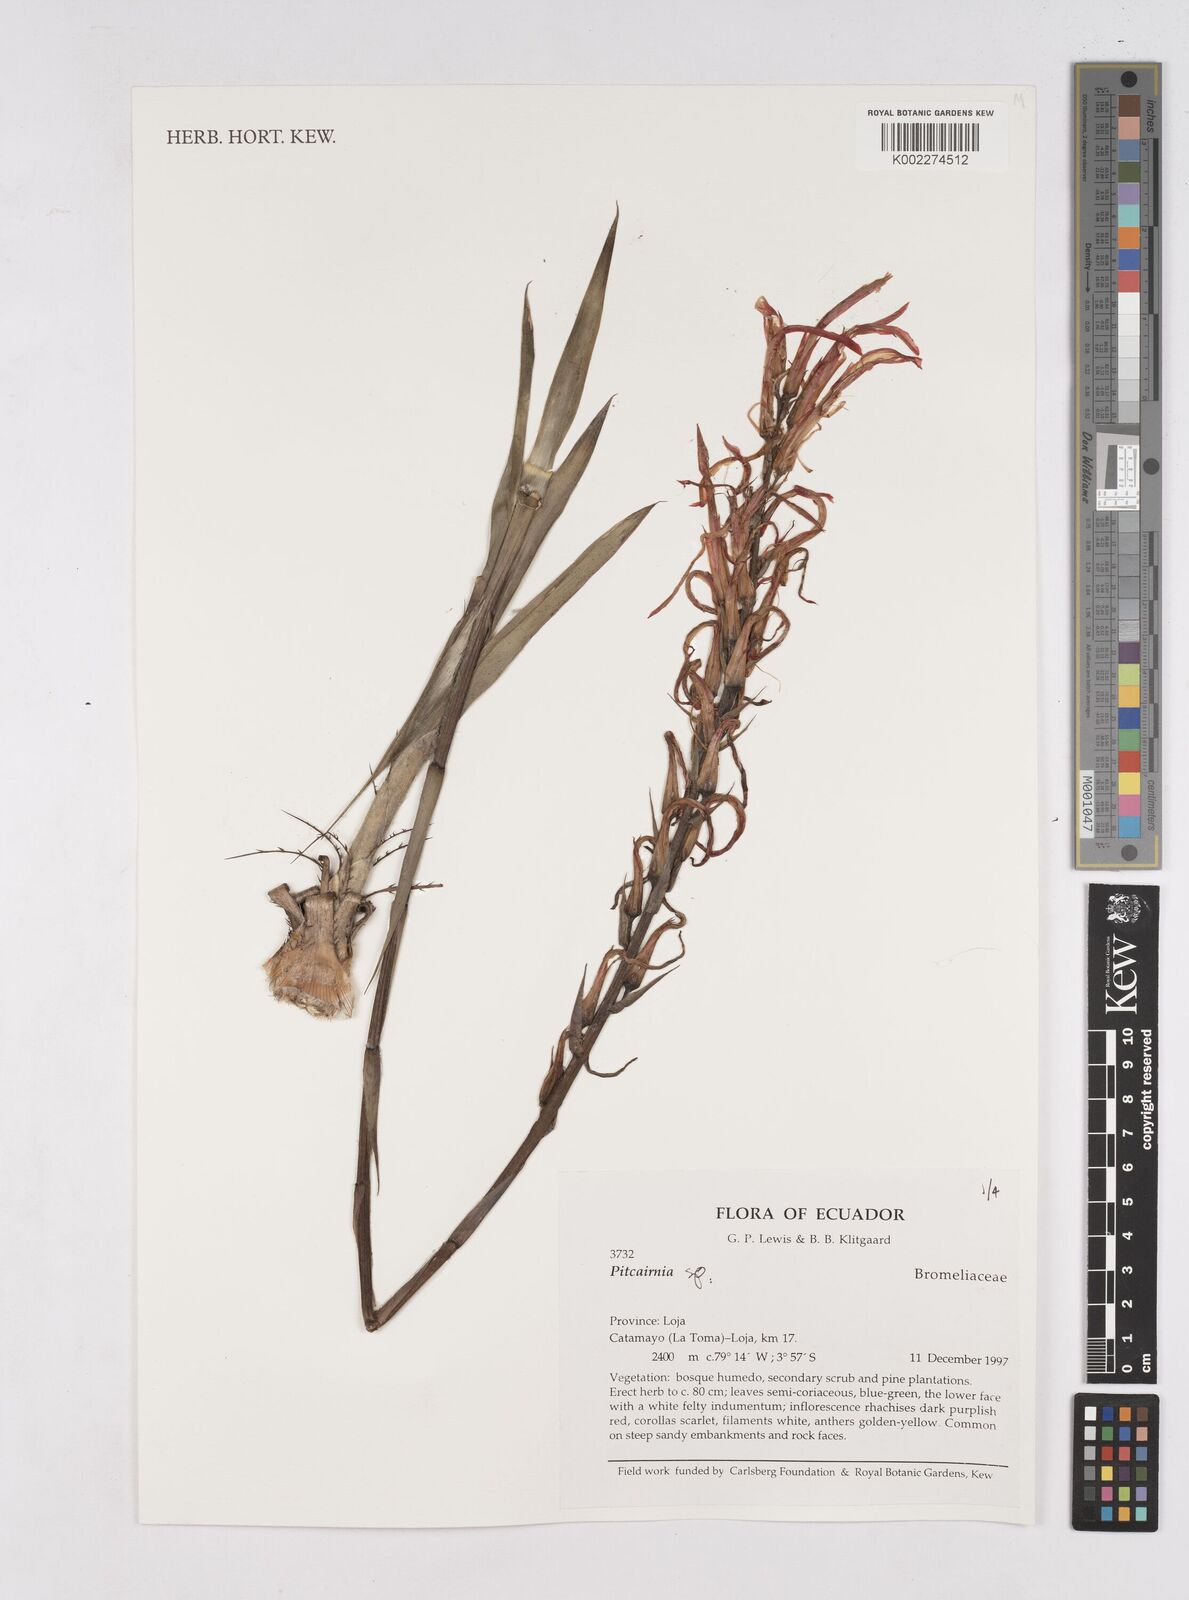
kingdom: Plantae
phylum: Tracheophyta
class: Liliopsida
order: Poales
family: Bromeliaceae
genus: Pitcairnia
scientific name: Pitcairnia
